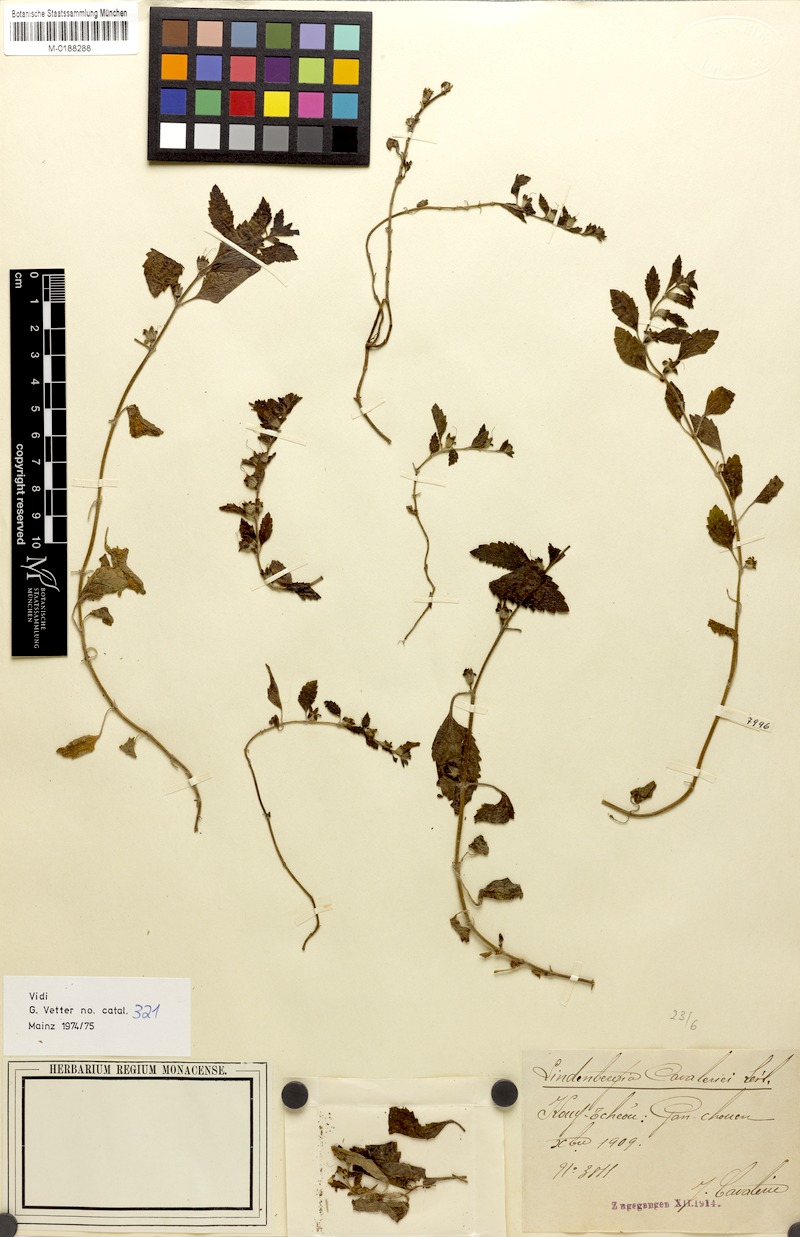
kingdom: Plantae
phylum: Tracheophyta
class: Magnoliopsida
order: Lamiales
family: Orobanchaceae
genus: Lindenbergia
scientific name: Lindenbergia
